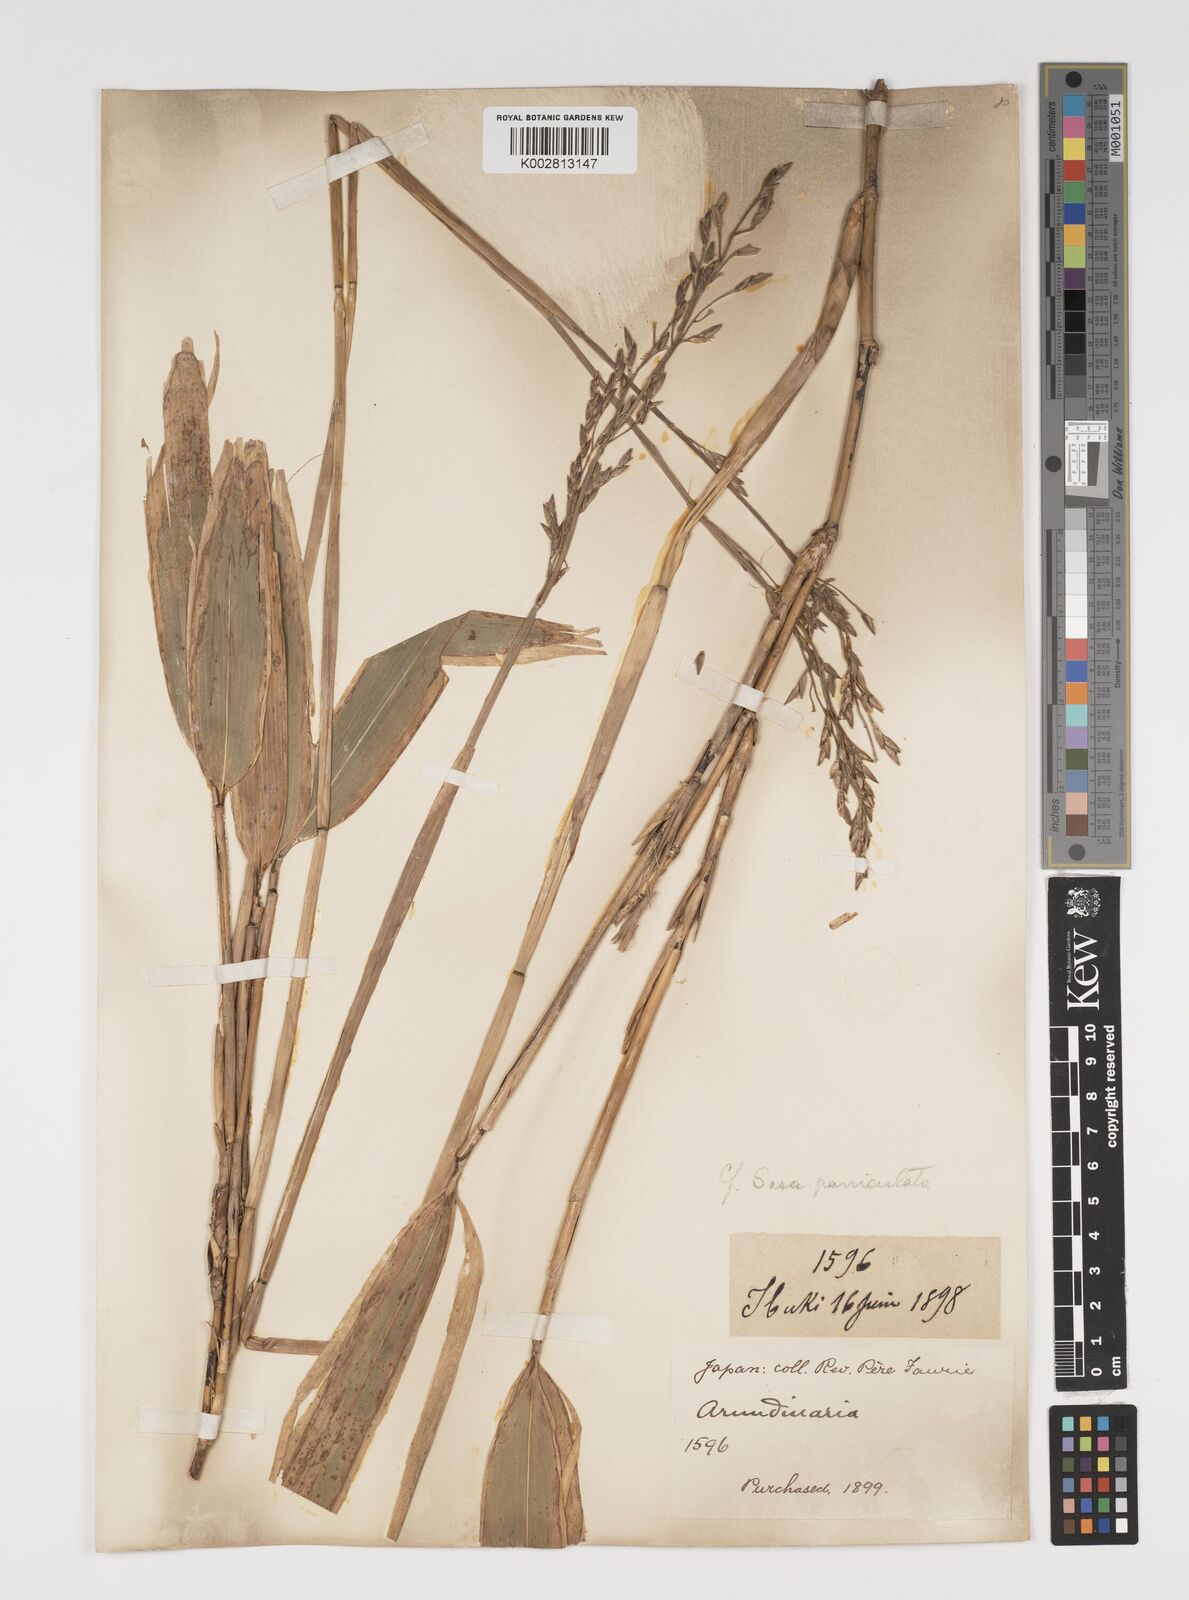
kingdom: Plantae
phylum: Tracheophyta
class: Liliopsida
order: Poales
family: Poaceae
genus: Sasa
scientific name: Sasa palmata
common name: Broad-leaved bamboo
